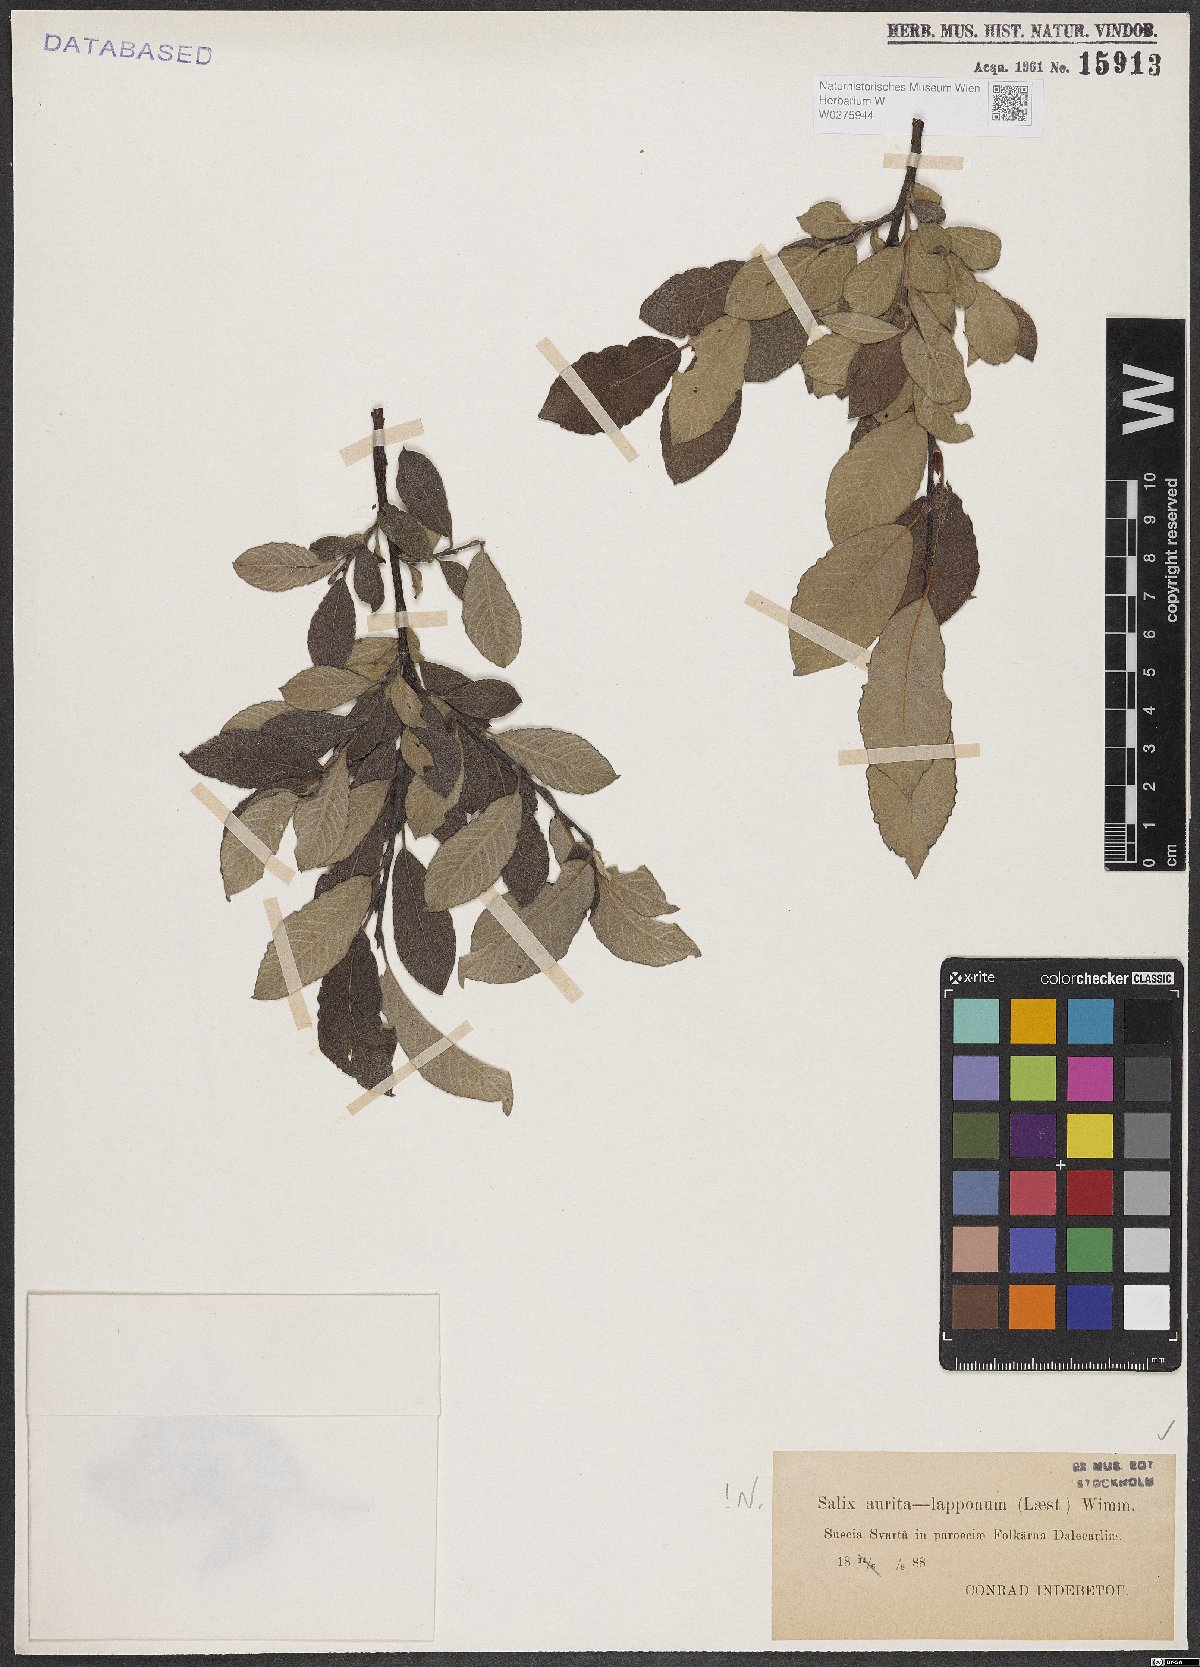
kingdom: Plantae
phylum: Tracheophyta
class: Magnoliopsida
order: Malpighiales
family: Salicaceae
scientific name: Salicaceae
